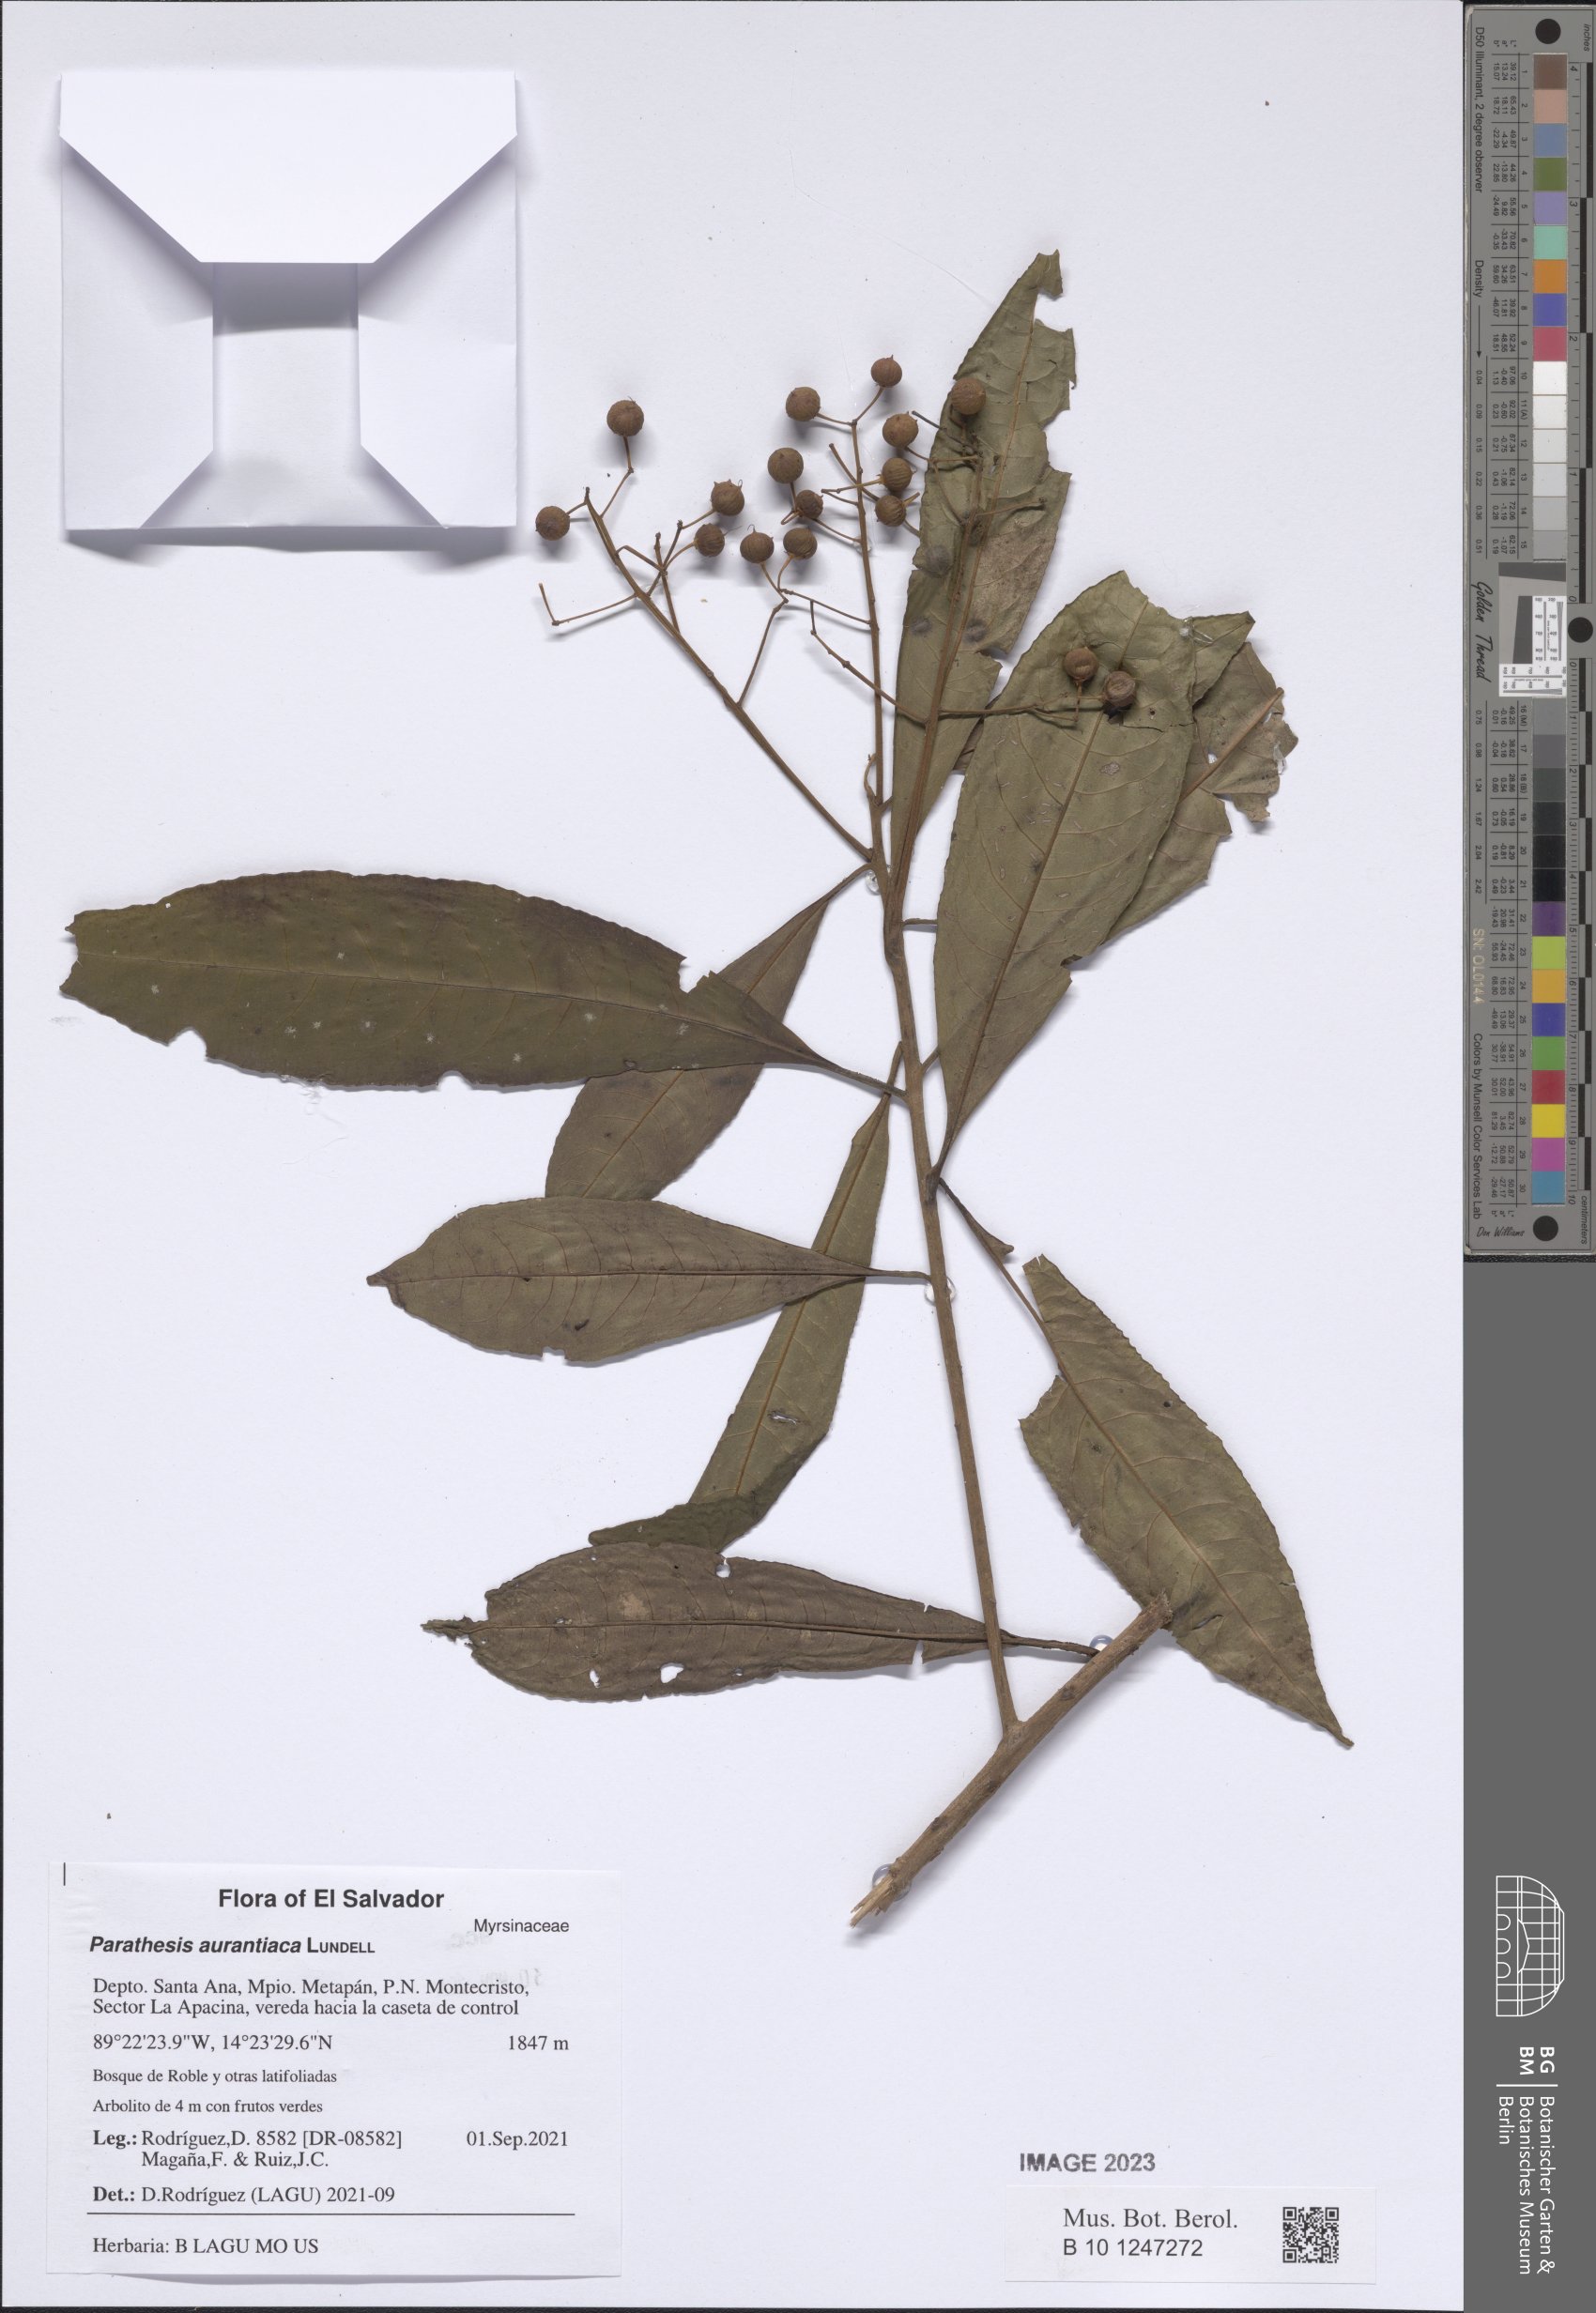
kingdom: Plantae
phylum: Tracheophyta
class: Magnoliopsida
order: Ericales
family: Primulaceae
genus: Parathesis
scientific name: Parathesis aurantiaca
